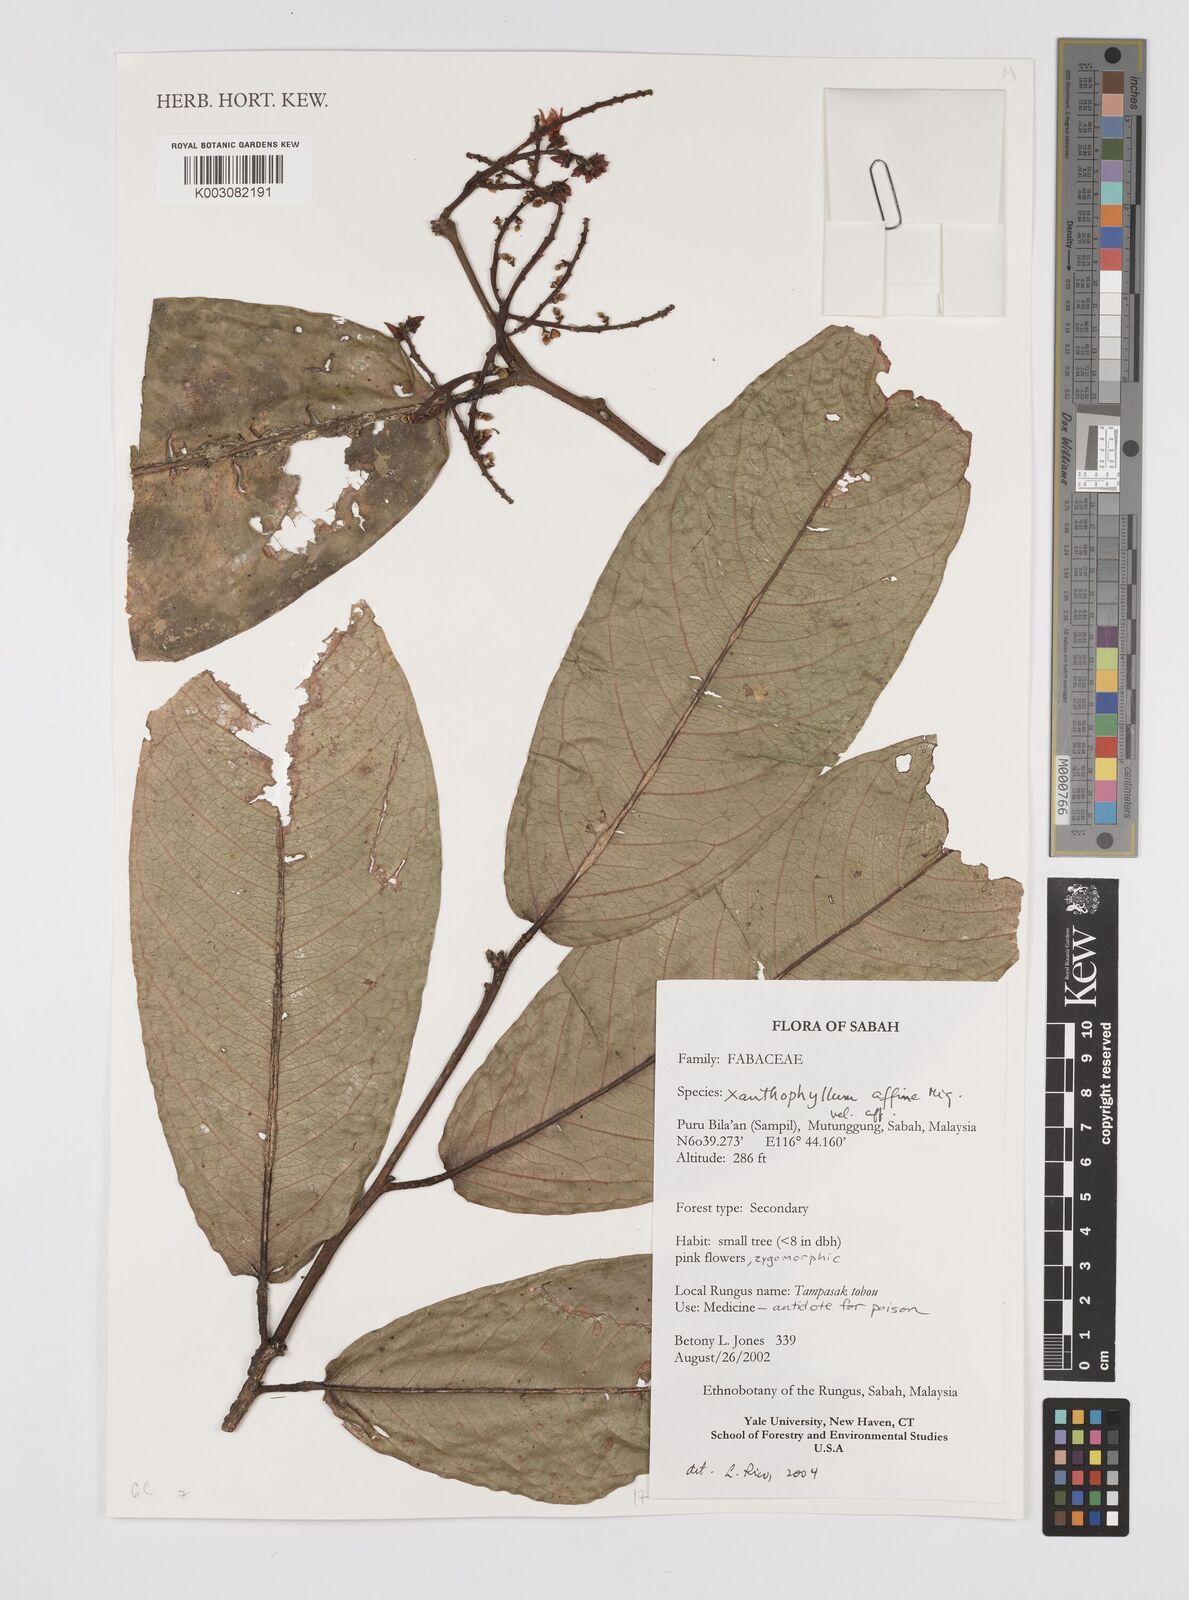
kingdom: Plantae
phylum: Tracheophyta
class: Magnoliopsida
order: Fabales
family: Polygalaceae
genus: Xanthophyllum
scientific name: Xanthophyllum flavescens
